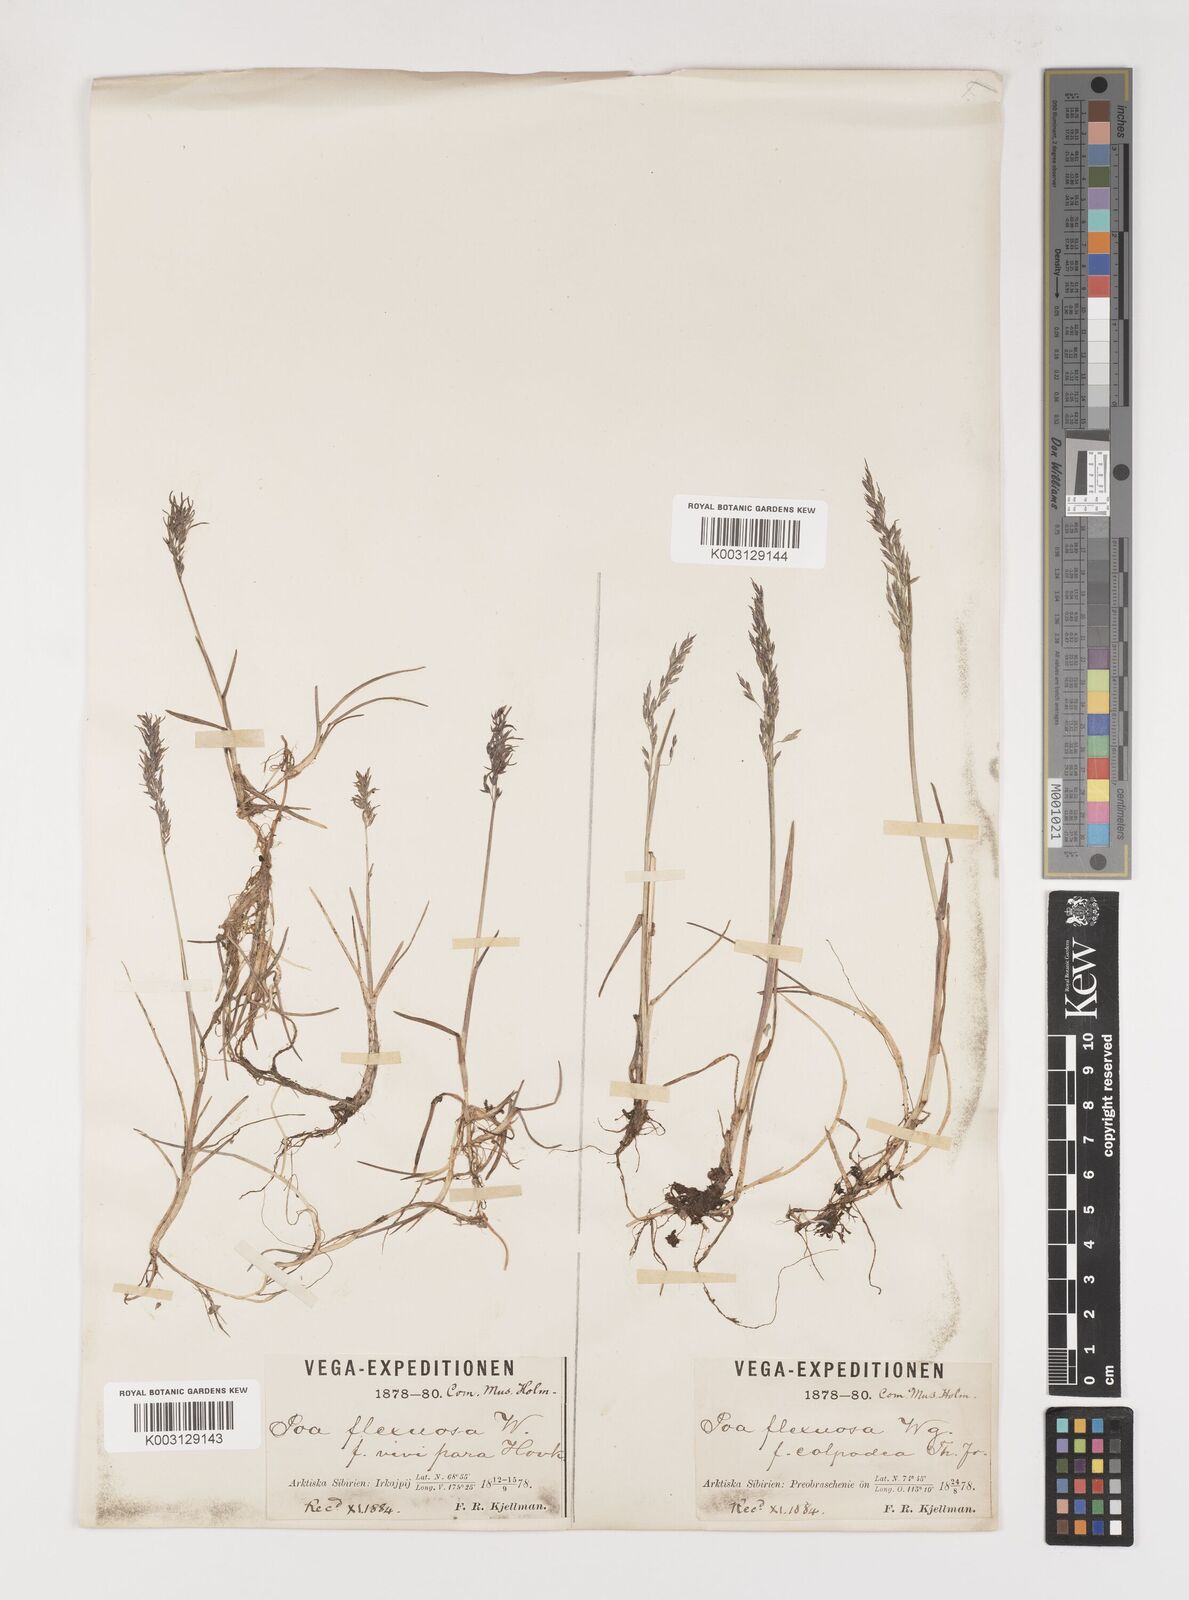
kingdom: Plantae
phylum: Tracheophyta
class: Liliopsida
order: Poales
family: Poaceae
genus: Poa
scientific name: Poa arctica
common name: Arctic bluegrass
